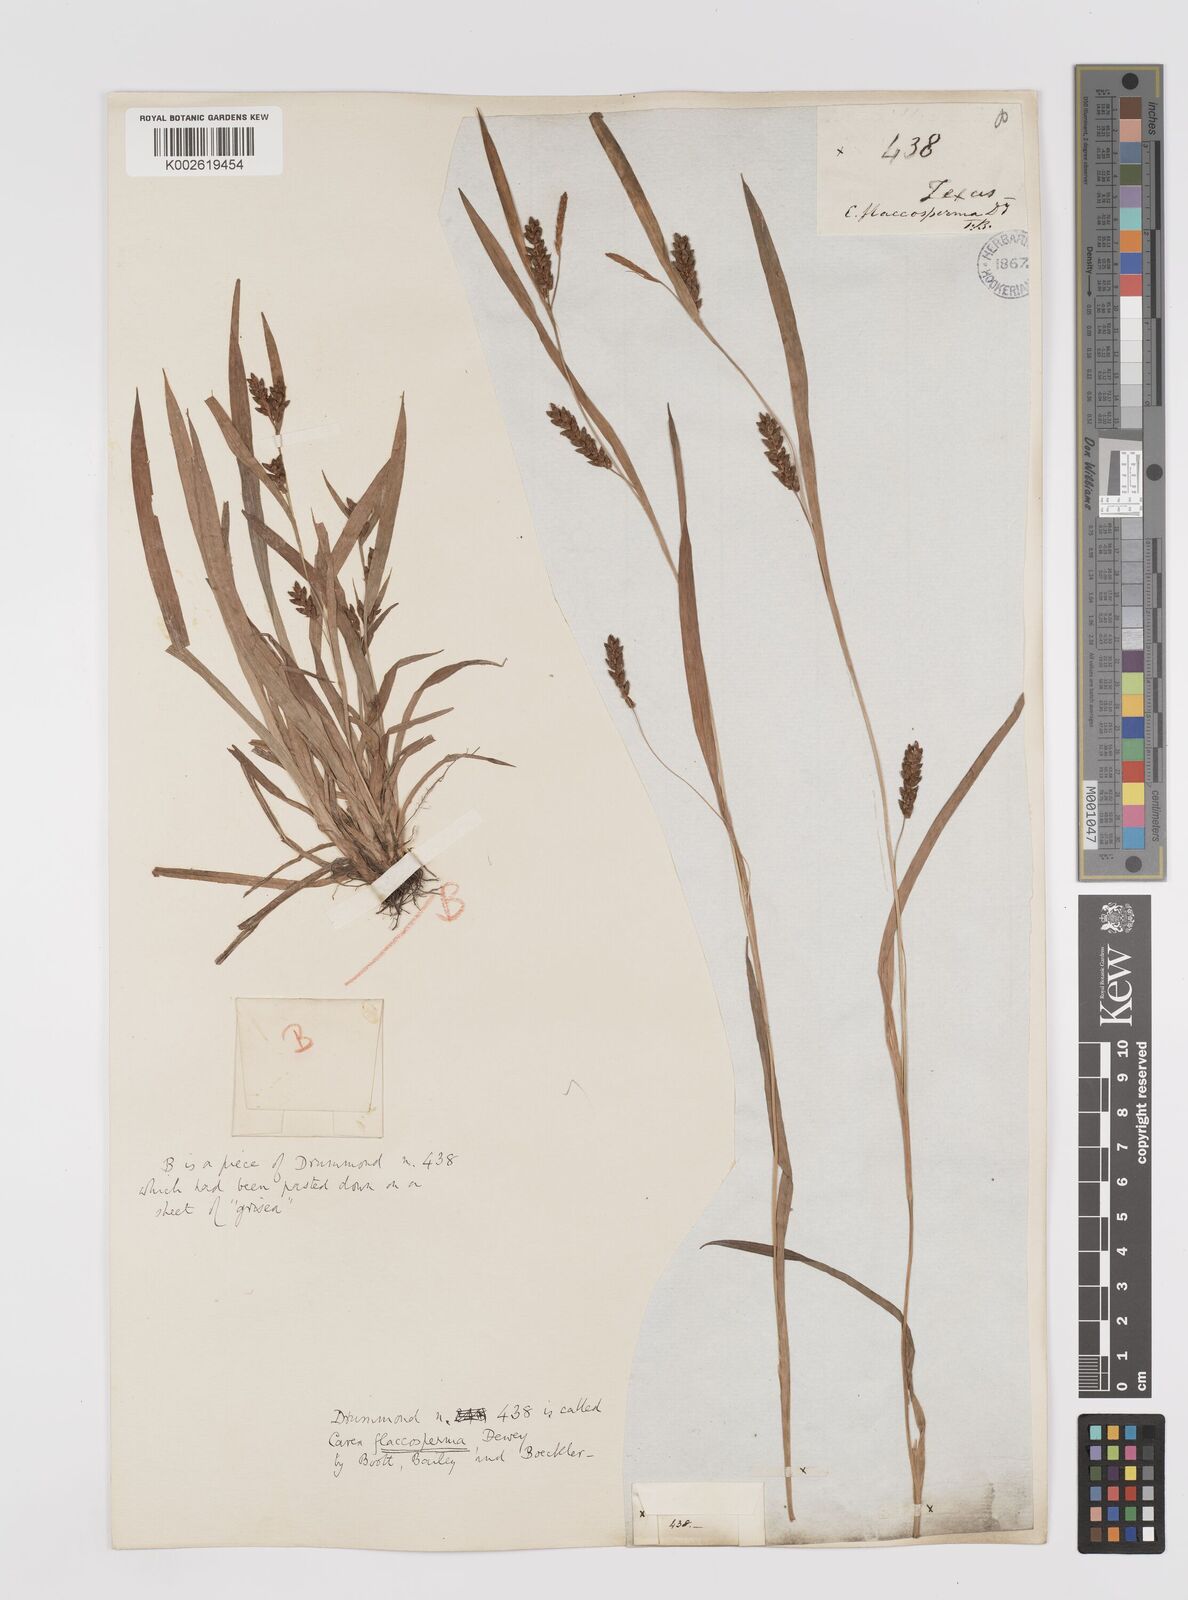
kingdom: Plantae
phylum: Tracheophyta
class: Liliopsida
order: Poales
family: Cyperaceae
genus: Carex
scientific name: Carex flaccosperma
